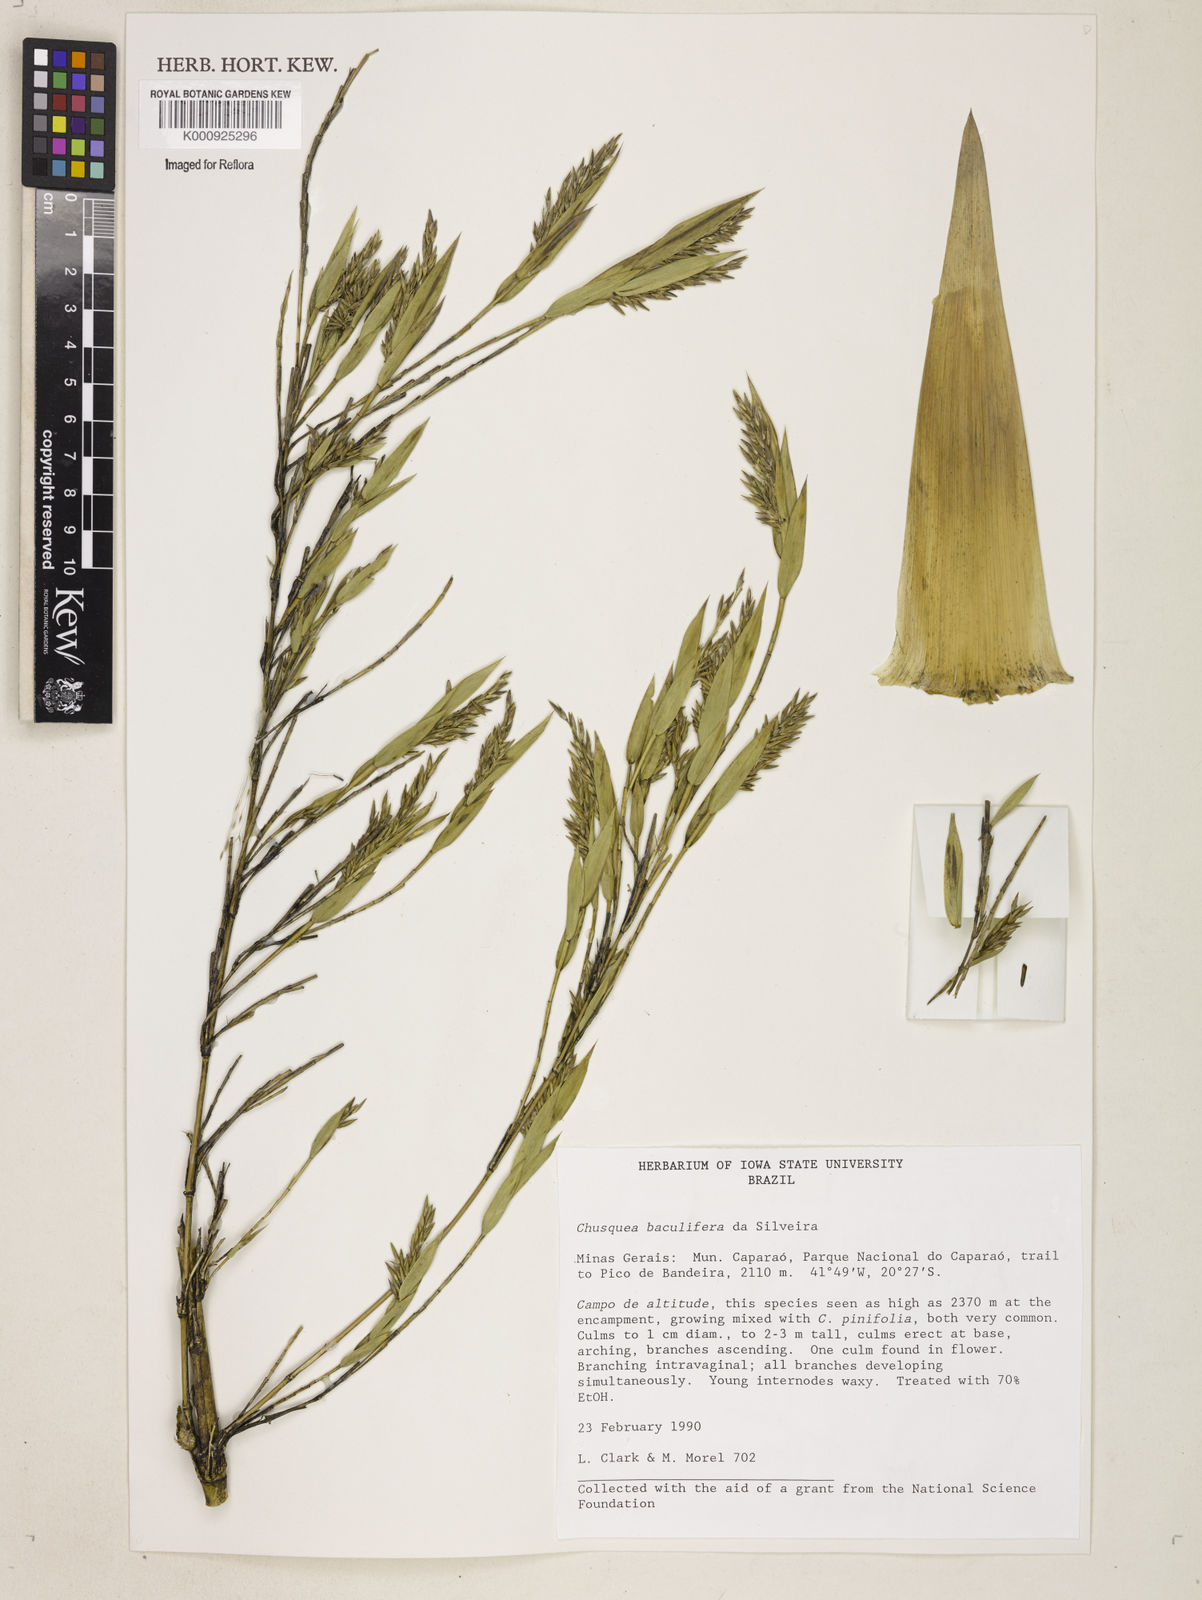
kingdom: Plantae
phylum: Tracheophyta
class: Liliopsida
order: Poales
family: Poaceae
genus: Chusquea
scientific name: Chusquea baculifera
